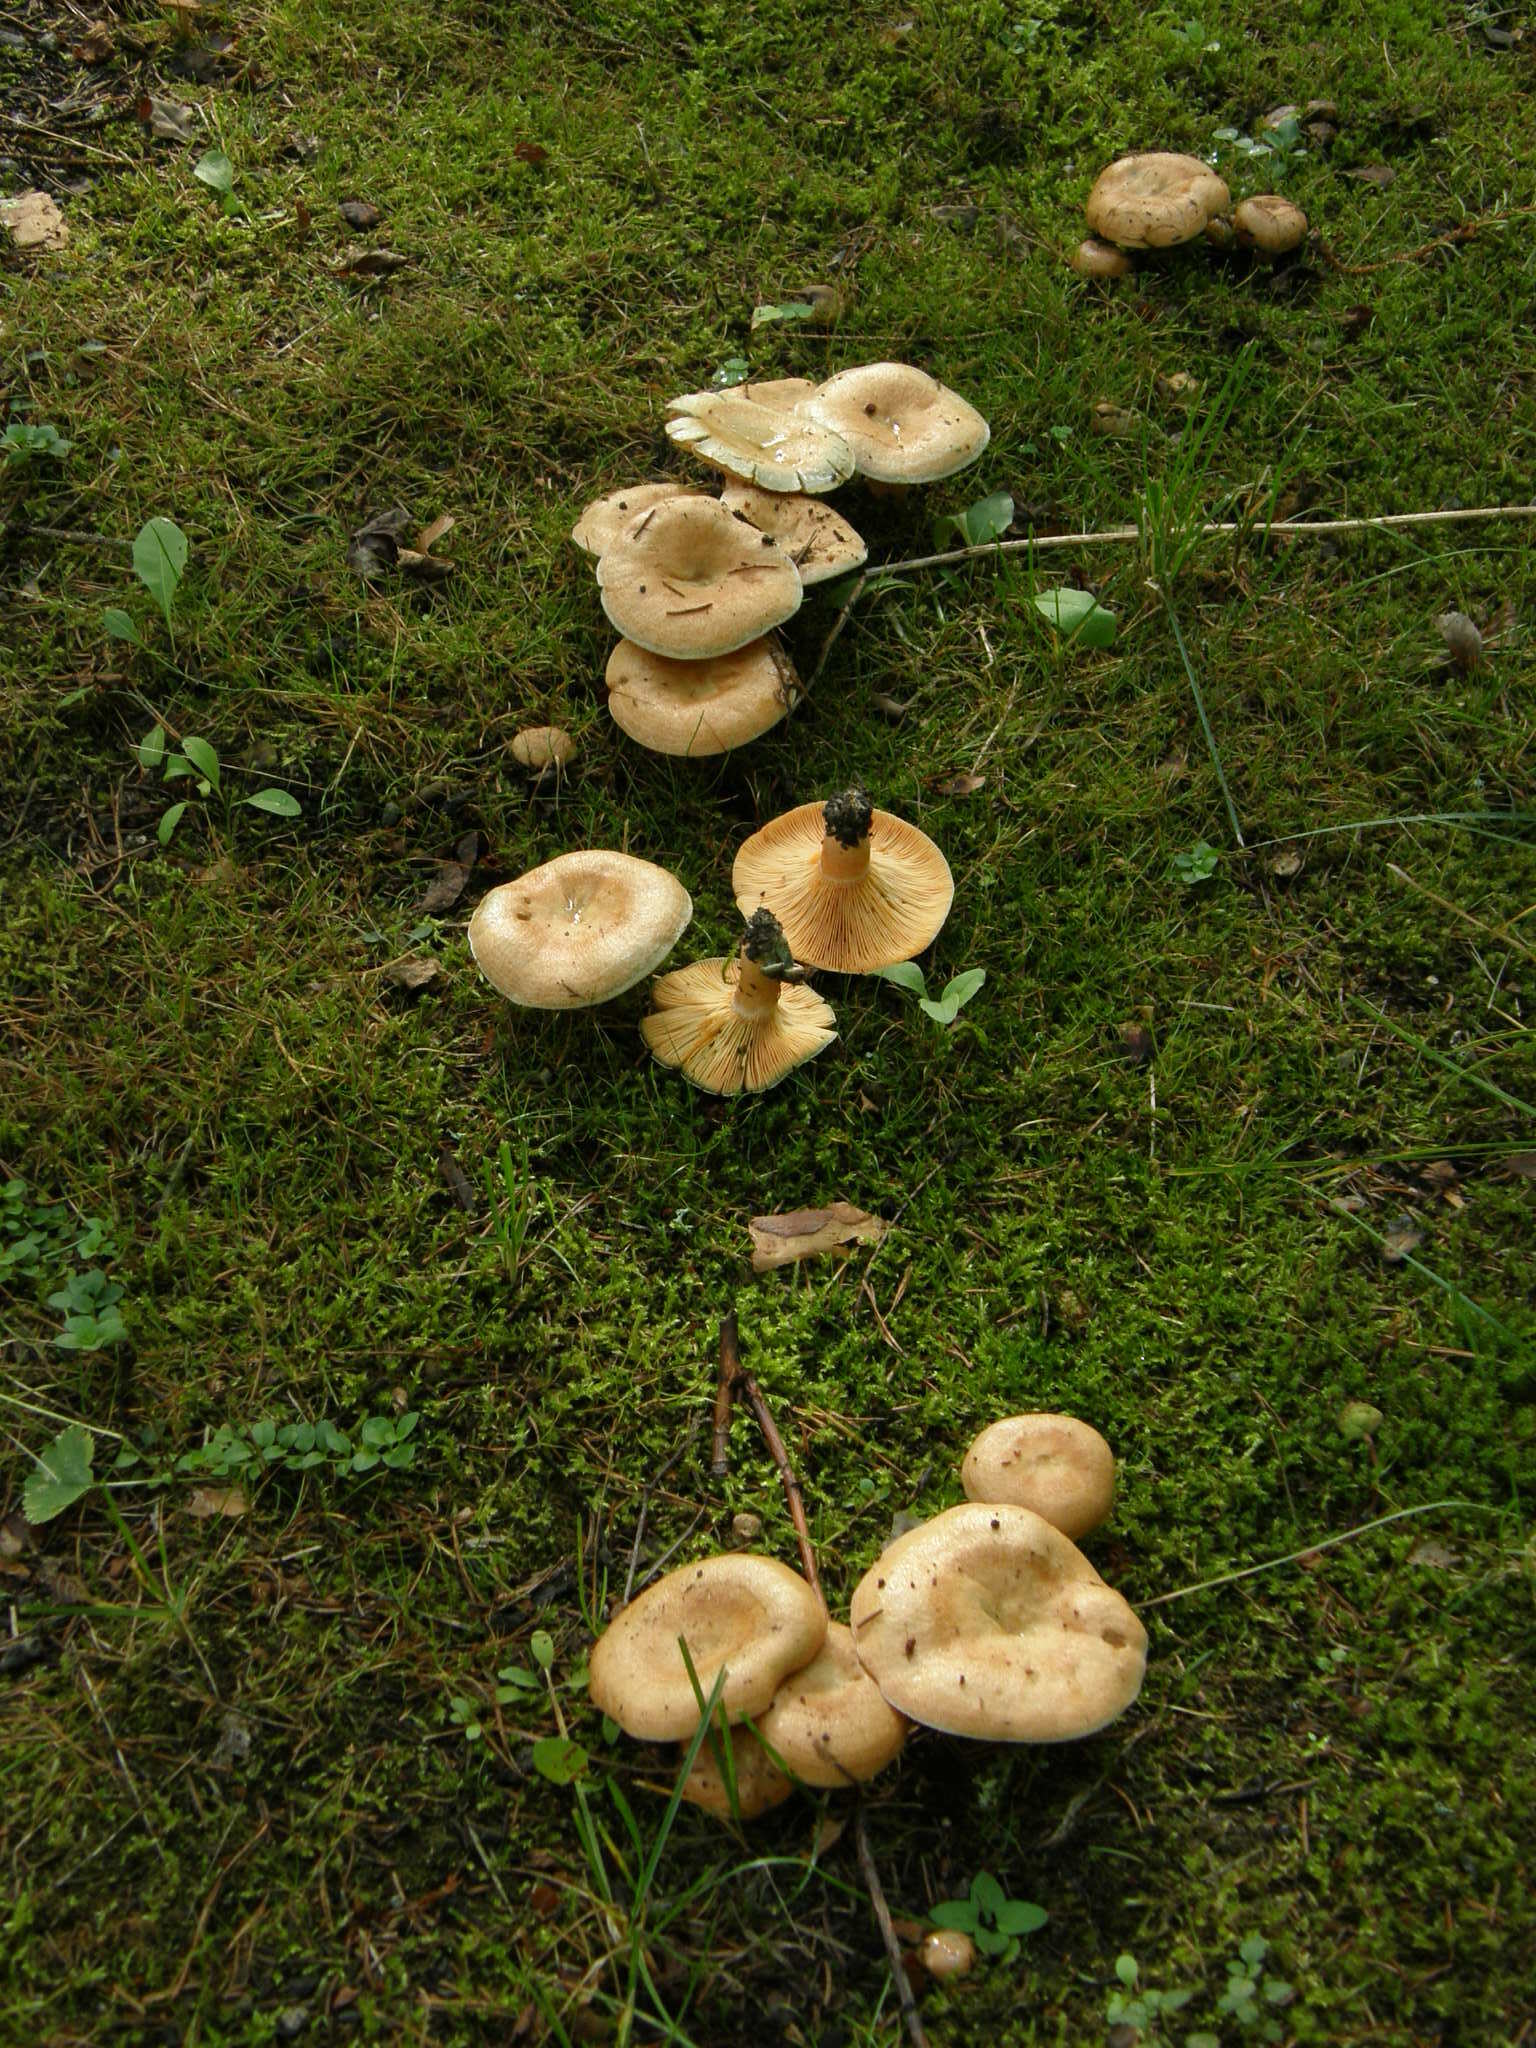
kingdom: Fungi
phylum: Basidiomycota
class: Agaricomycetes
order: Russulales
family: Russulaceae
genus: Lactarius
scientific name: Lactarius deterrimus
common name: False saffron milkcap
